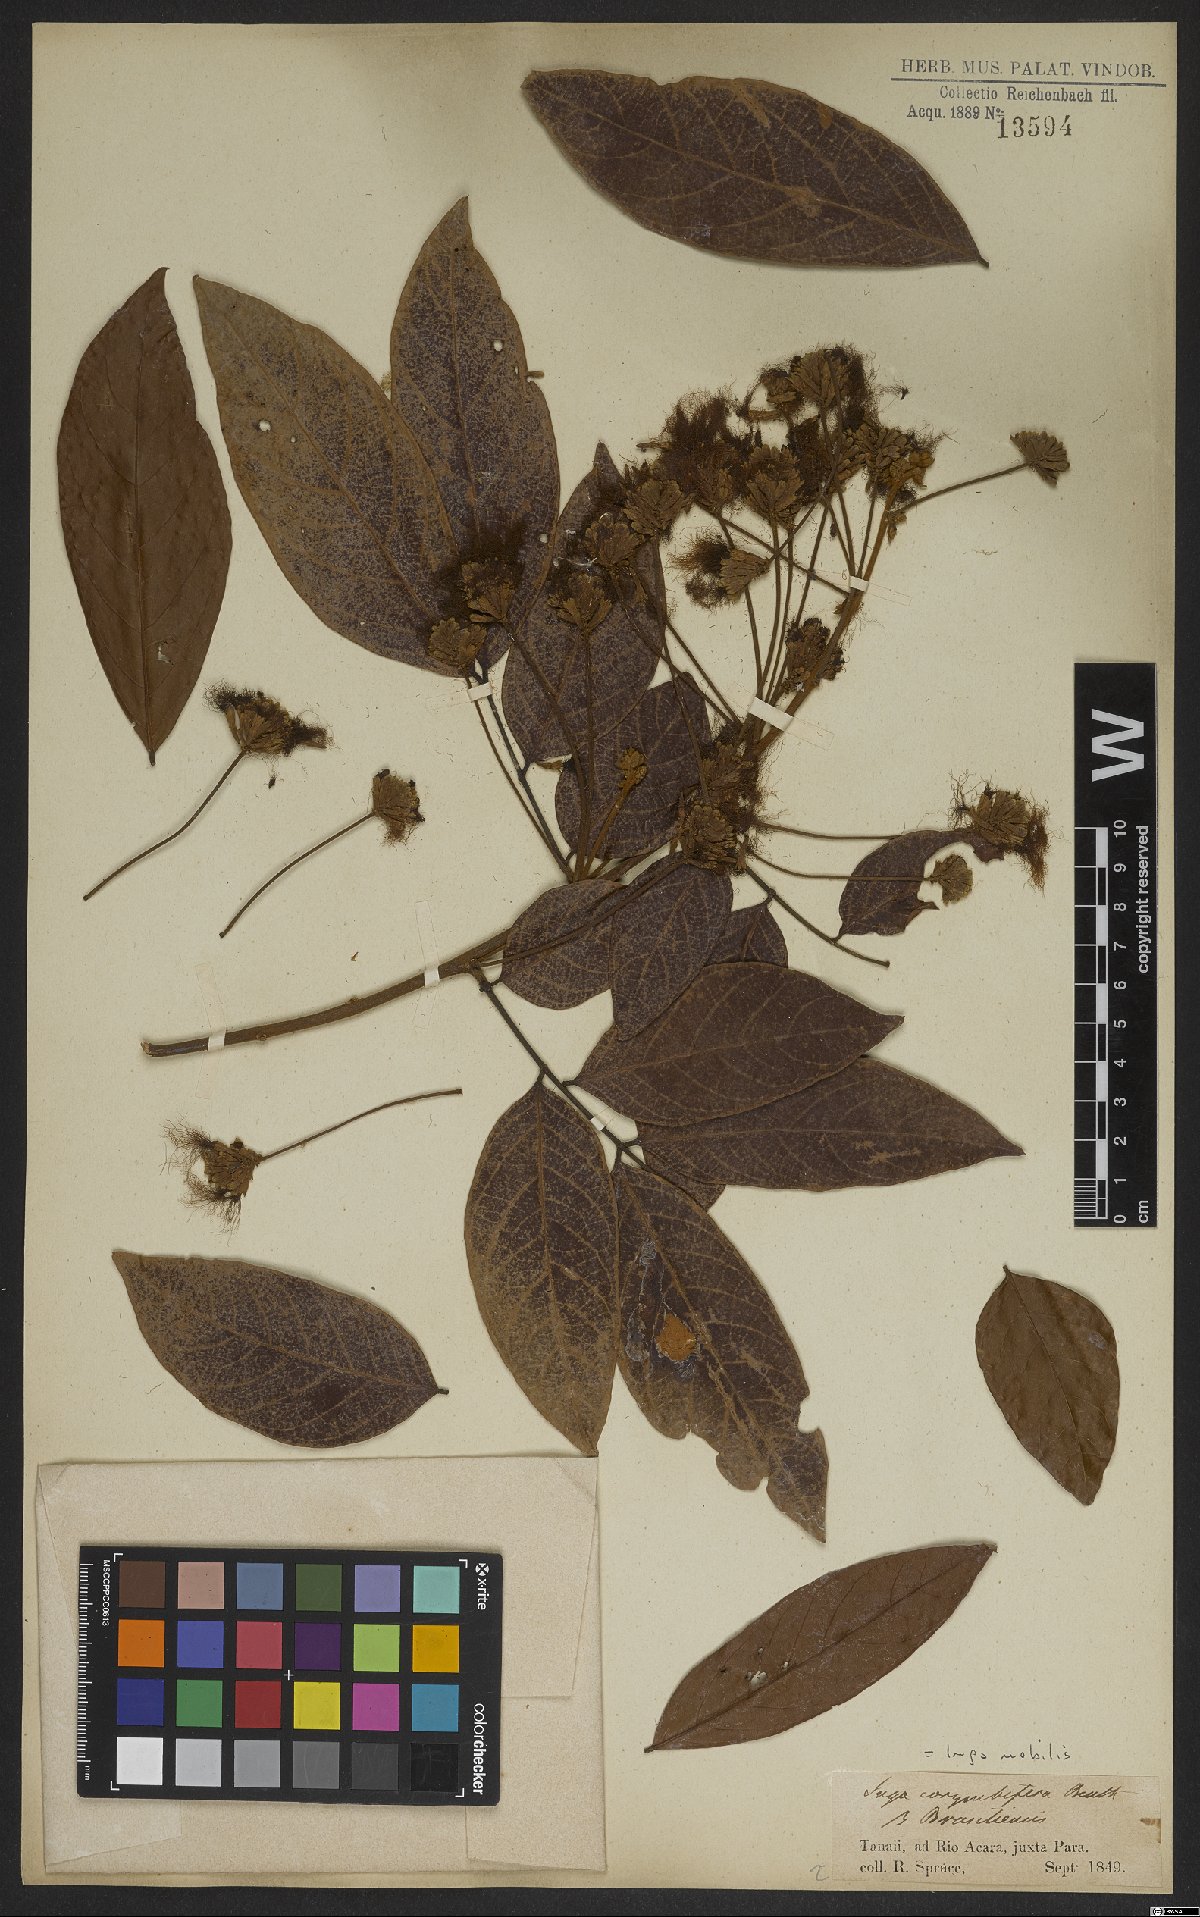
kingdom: Plantae
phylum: Tracheophyta
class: Magnoliopsida
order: Fabales
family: Fabaceae
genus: Inga
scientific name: Inga nobilis
